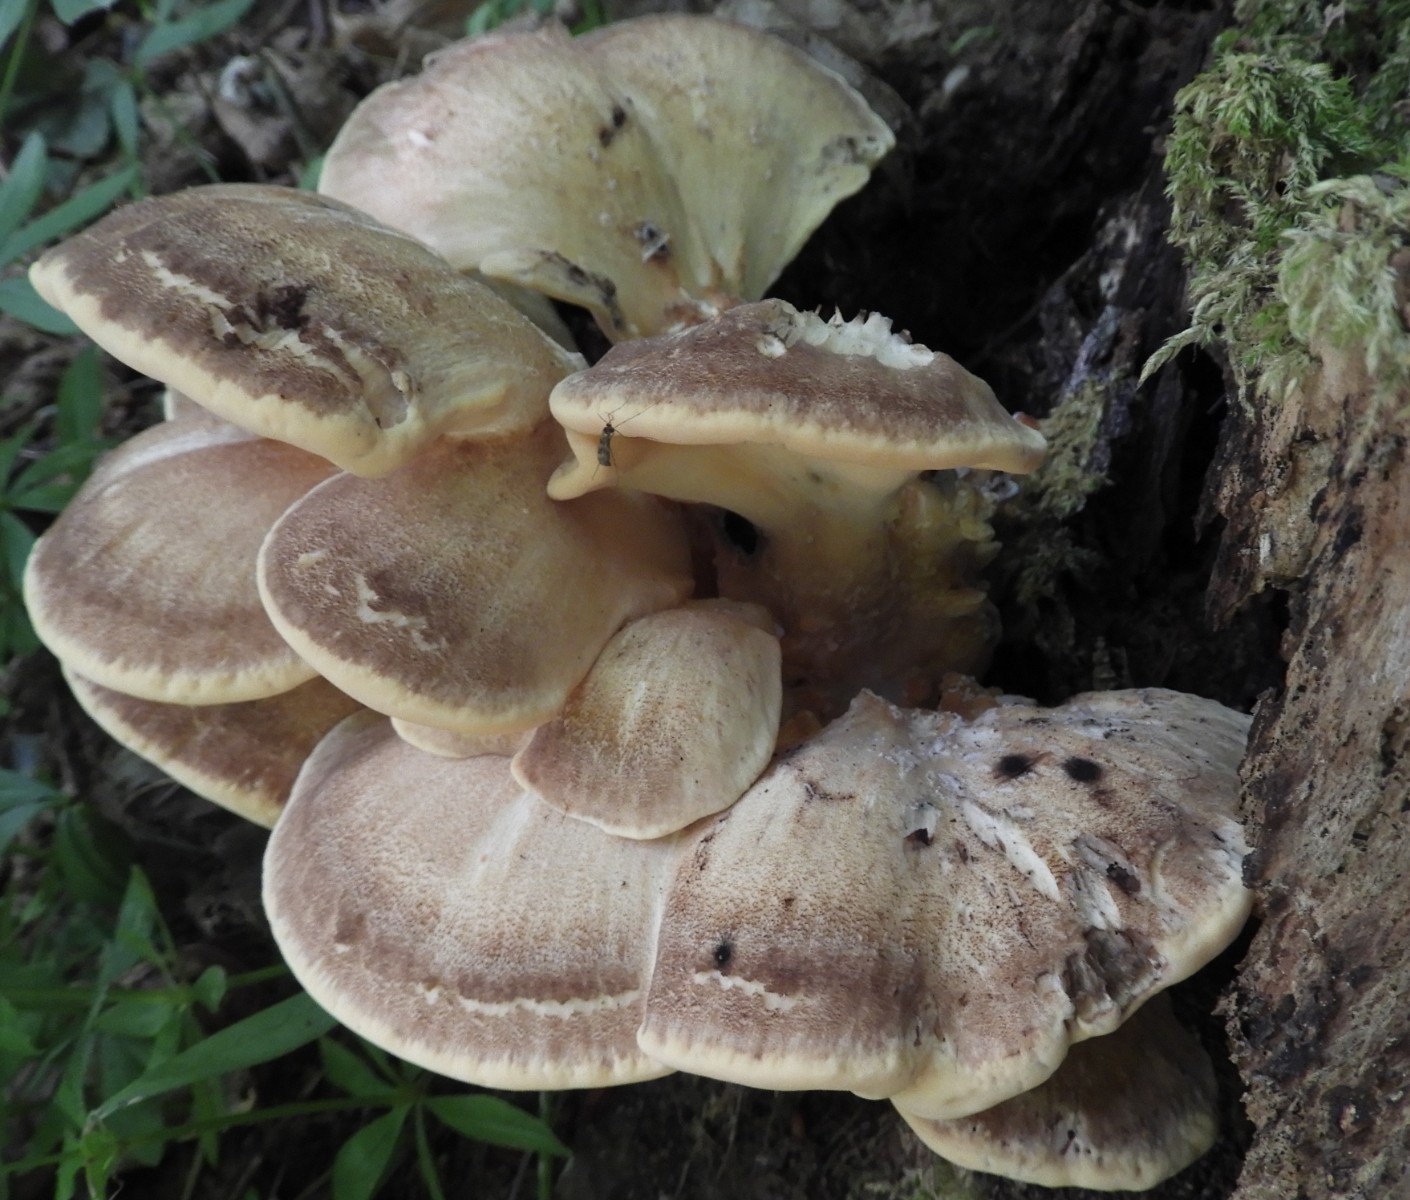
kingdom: Fungi
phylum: Basidiomycota
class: Agaricomycetes
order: Polyporales
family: Meripilaceae
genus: Meripilus
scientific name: Meripilus giganteus
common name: kæmpeporesvamp
